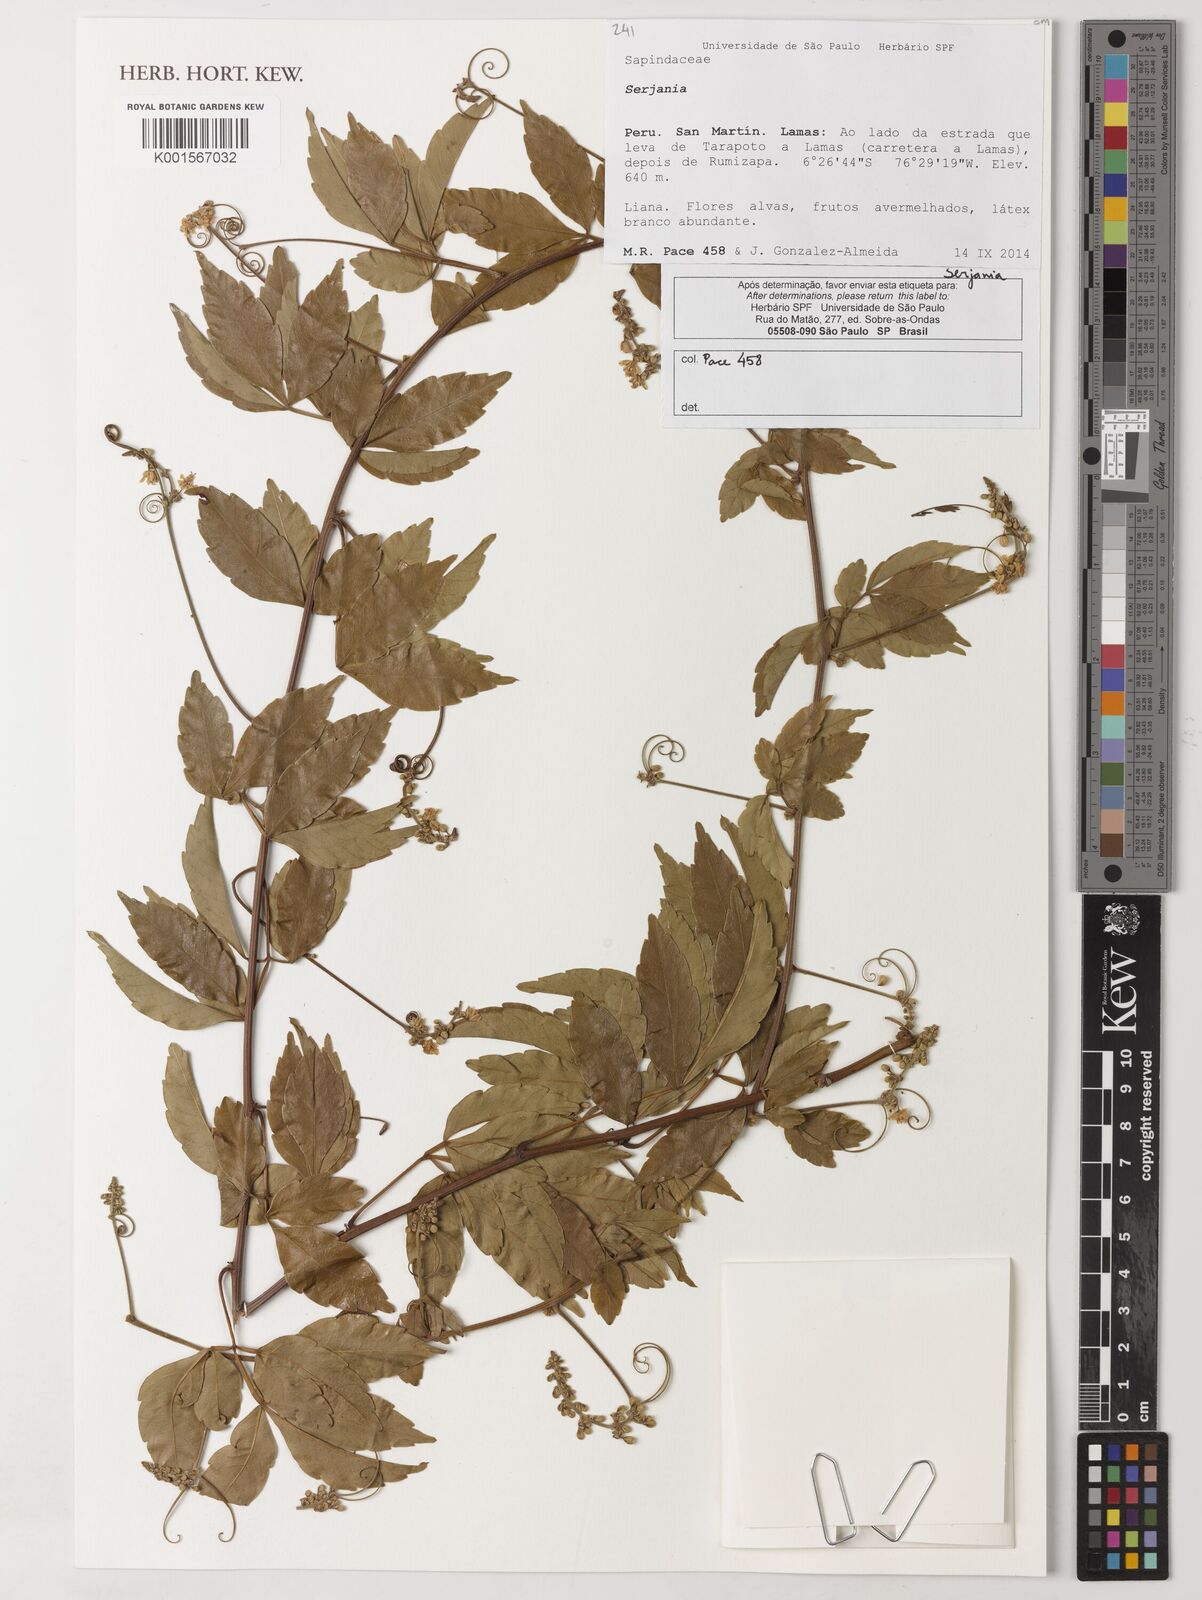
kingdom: Plantae
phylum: Tracheophyta
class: Magnoliopsida
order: Sapindales
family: Sapindaceae
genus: Serjania
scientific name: Serjania
